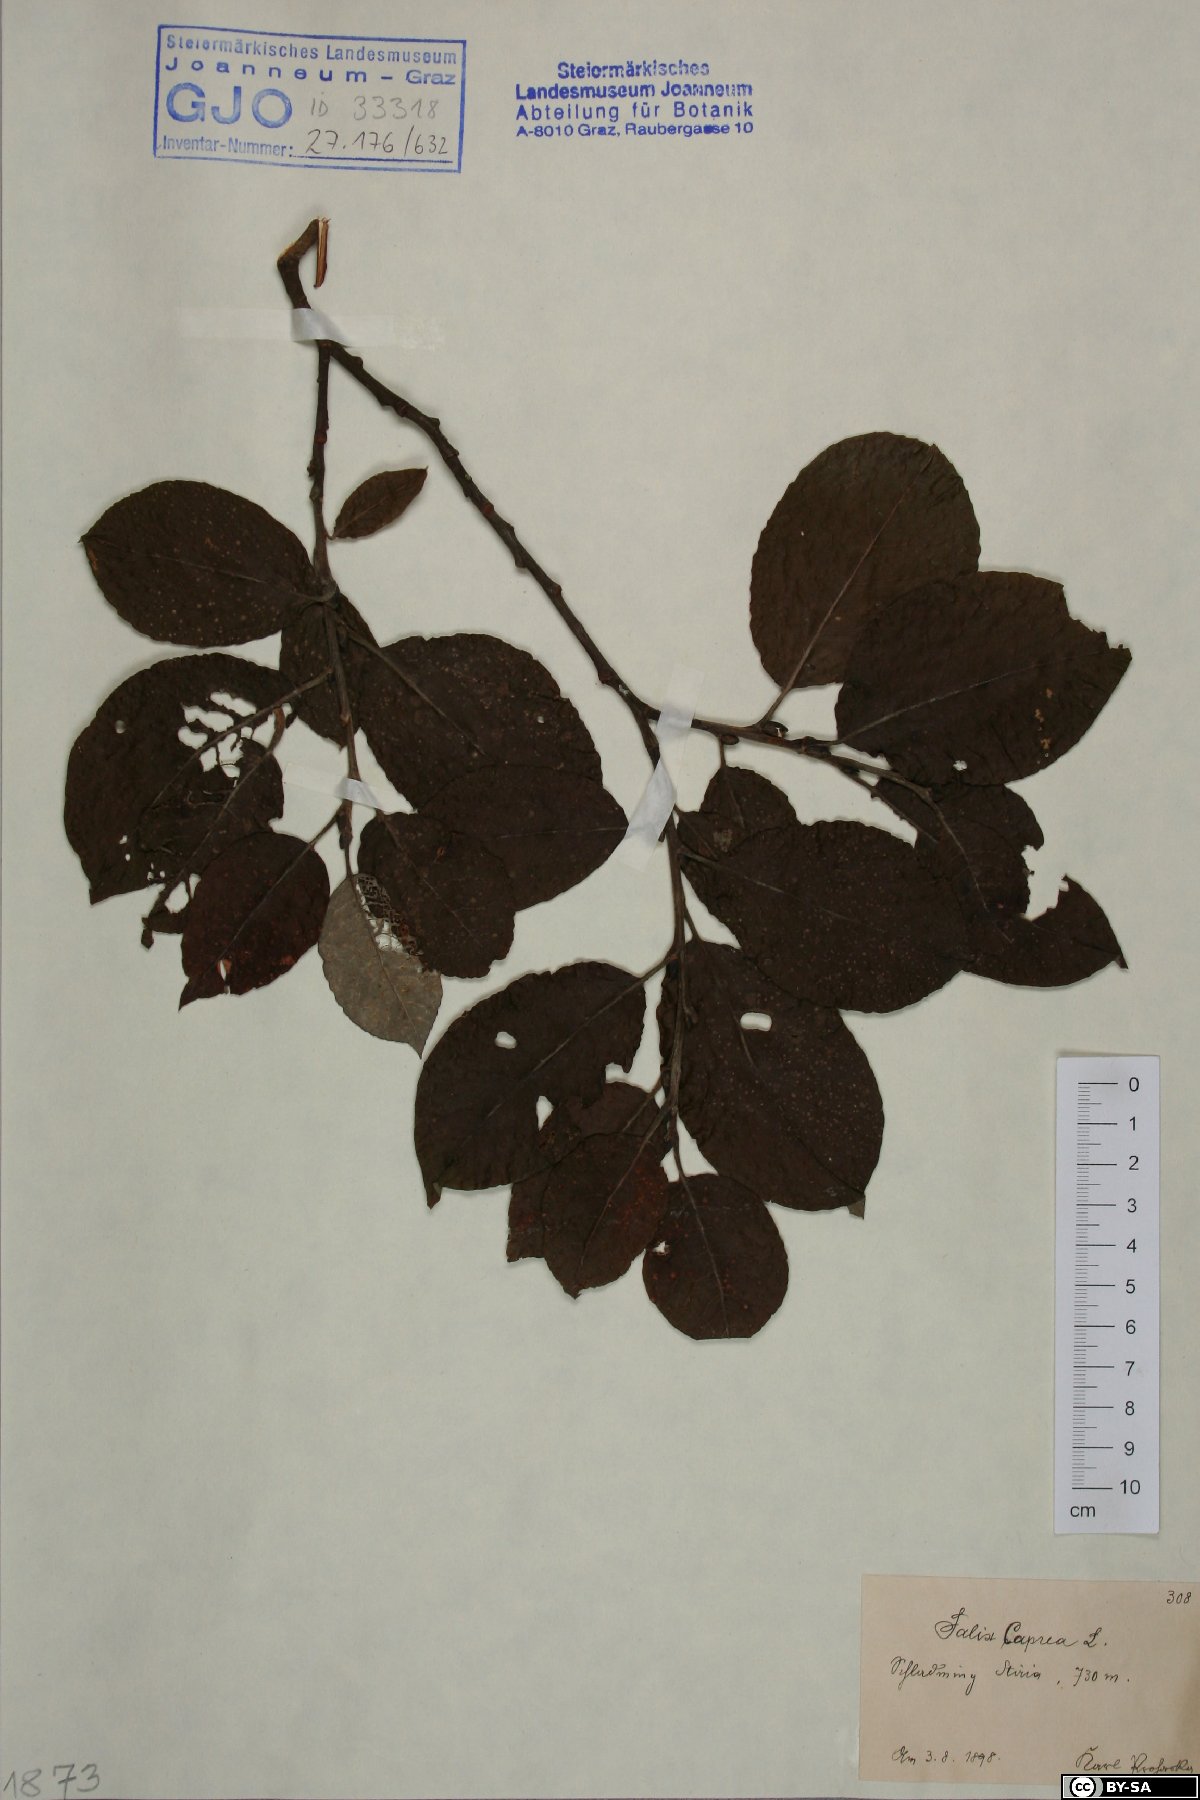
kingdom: Plantae
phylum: Tracheophyta
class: Magnoliopsida
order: Malpighiales
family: Salicaceae
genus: Salix
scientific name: Salix caprea
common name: Goat willow
